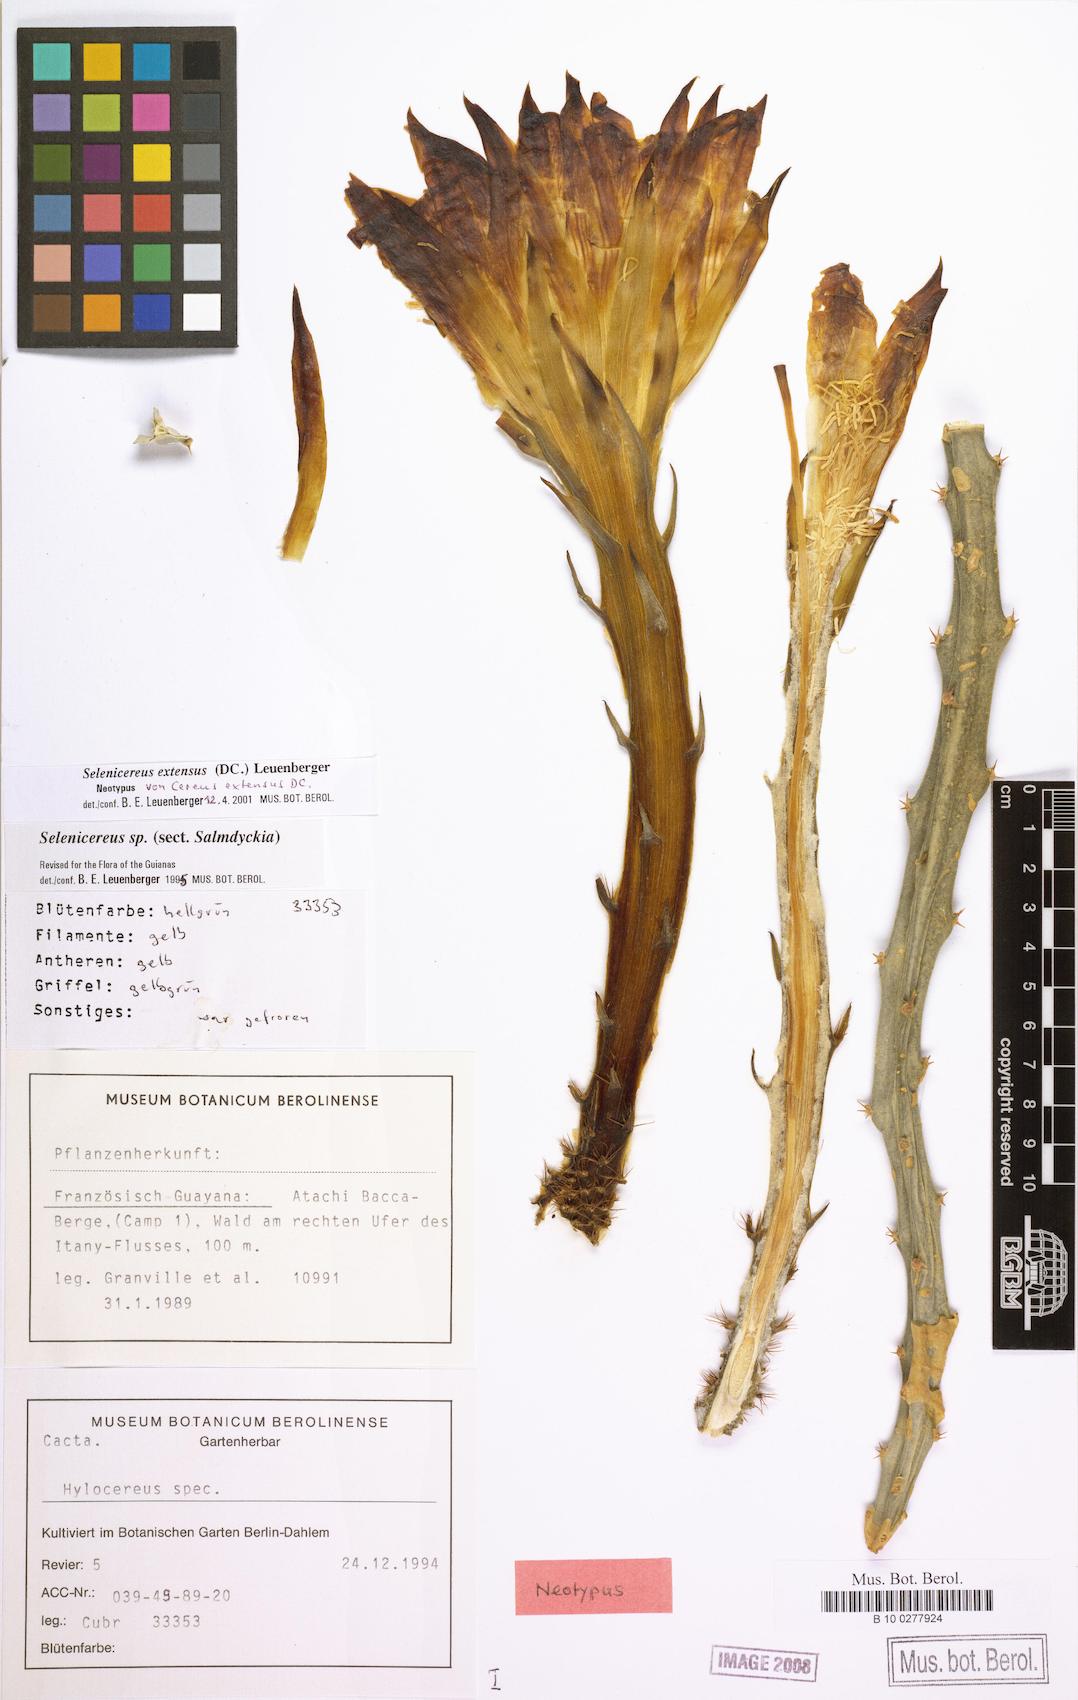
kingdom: Plantae
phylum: Tracheophyta
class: Magnoliopsida
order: Caryophyllales
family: Cactaceae
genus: Selenicereus
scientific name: Selenicereus extensus
